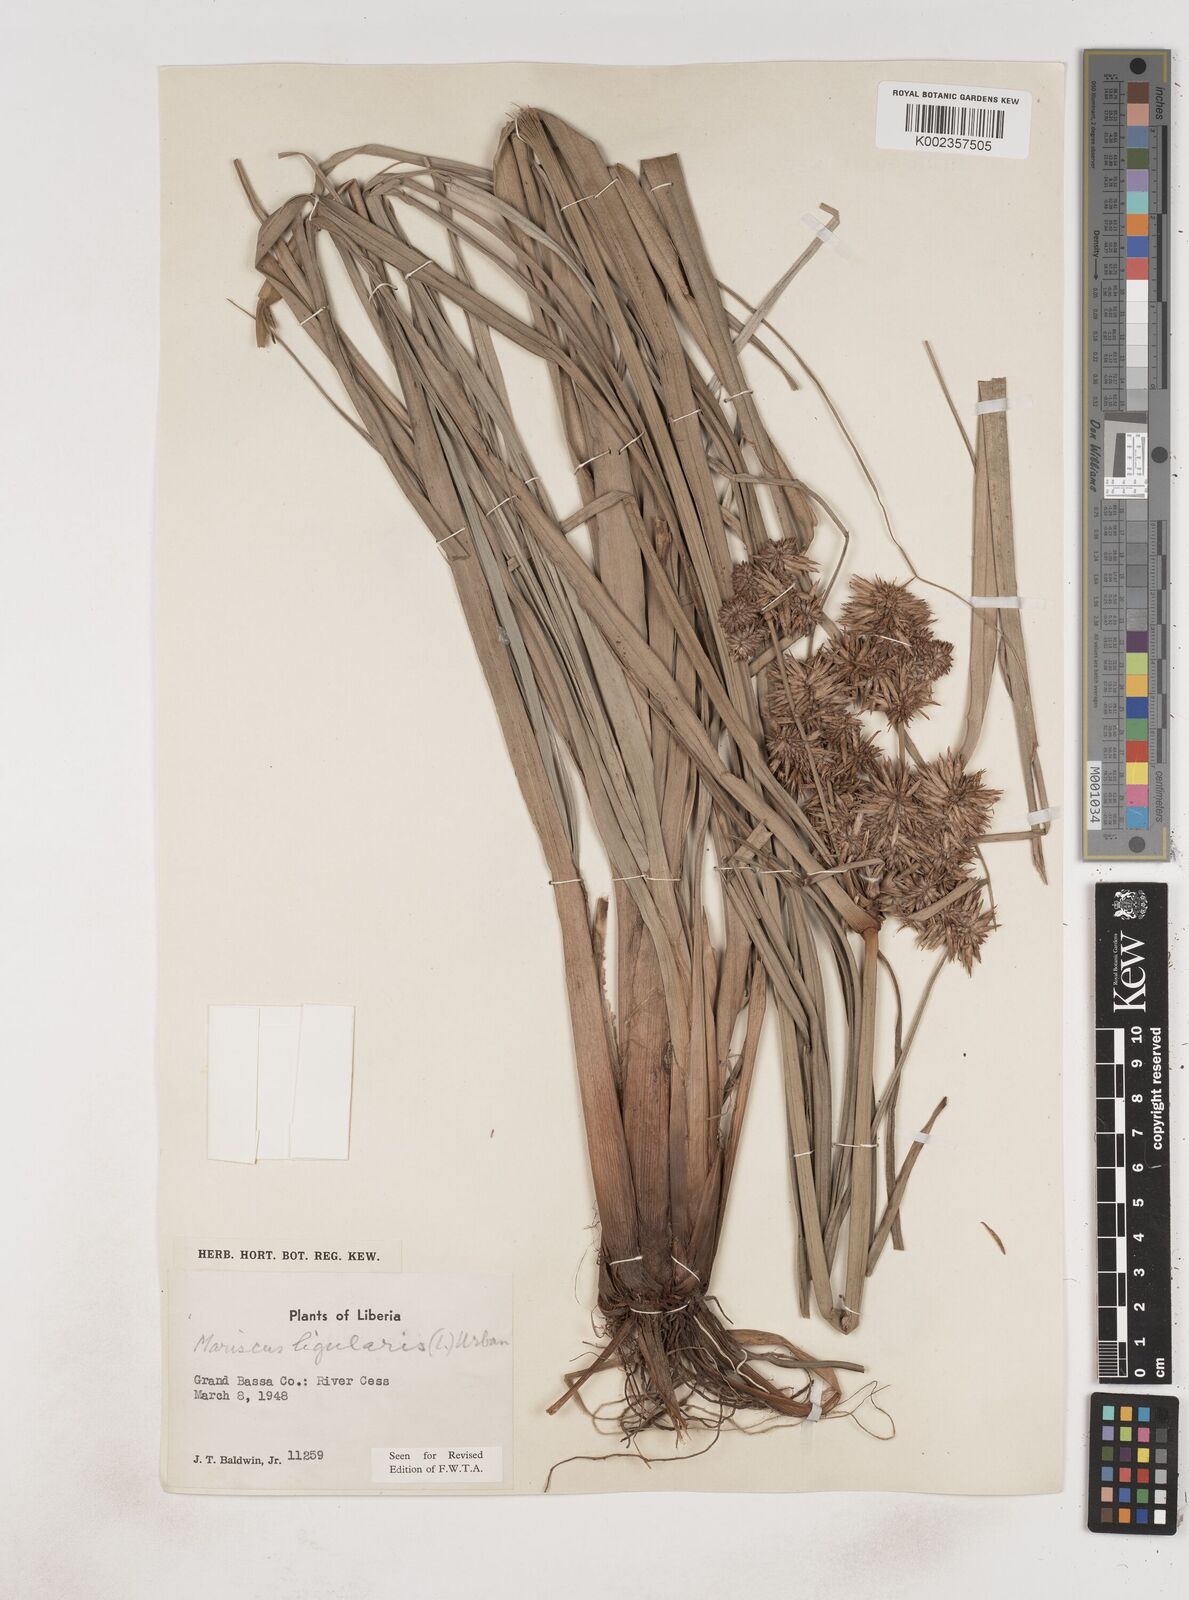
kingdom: Plantae
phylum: Tracheophyta
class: Liliopsida
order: Poales
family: Cyperaceae
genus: Cyperus
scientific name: Cyperus ligularis
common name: Swamp flat sedge
